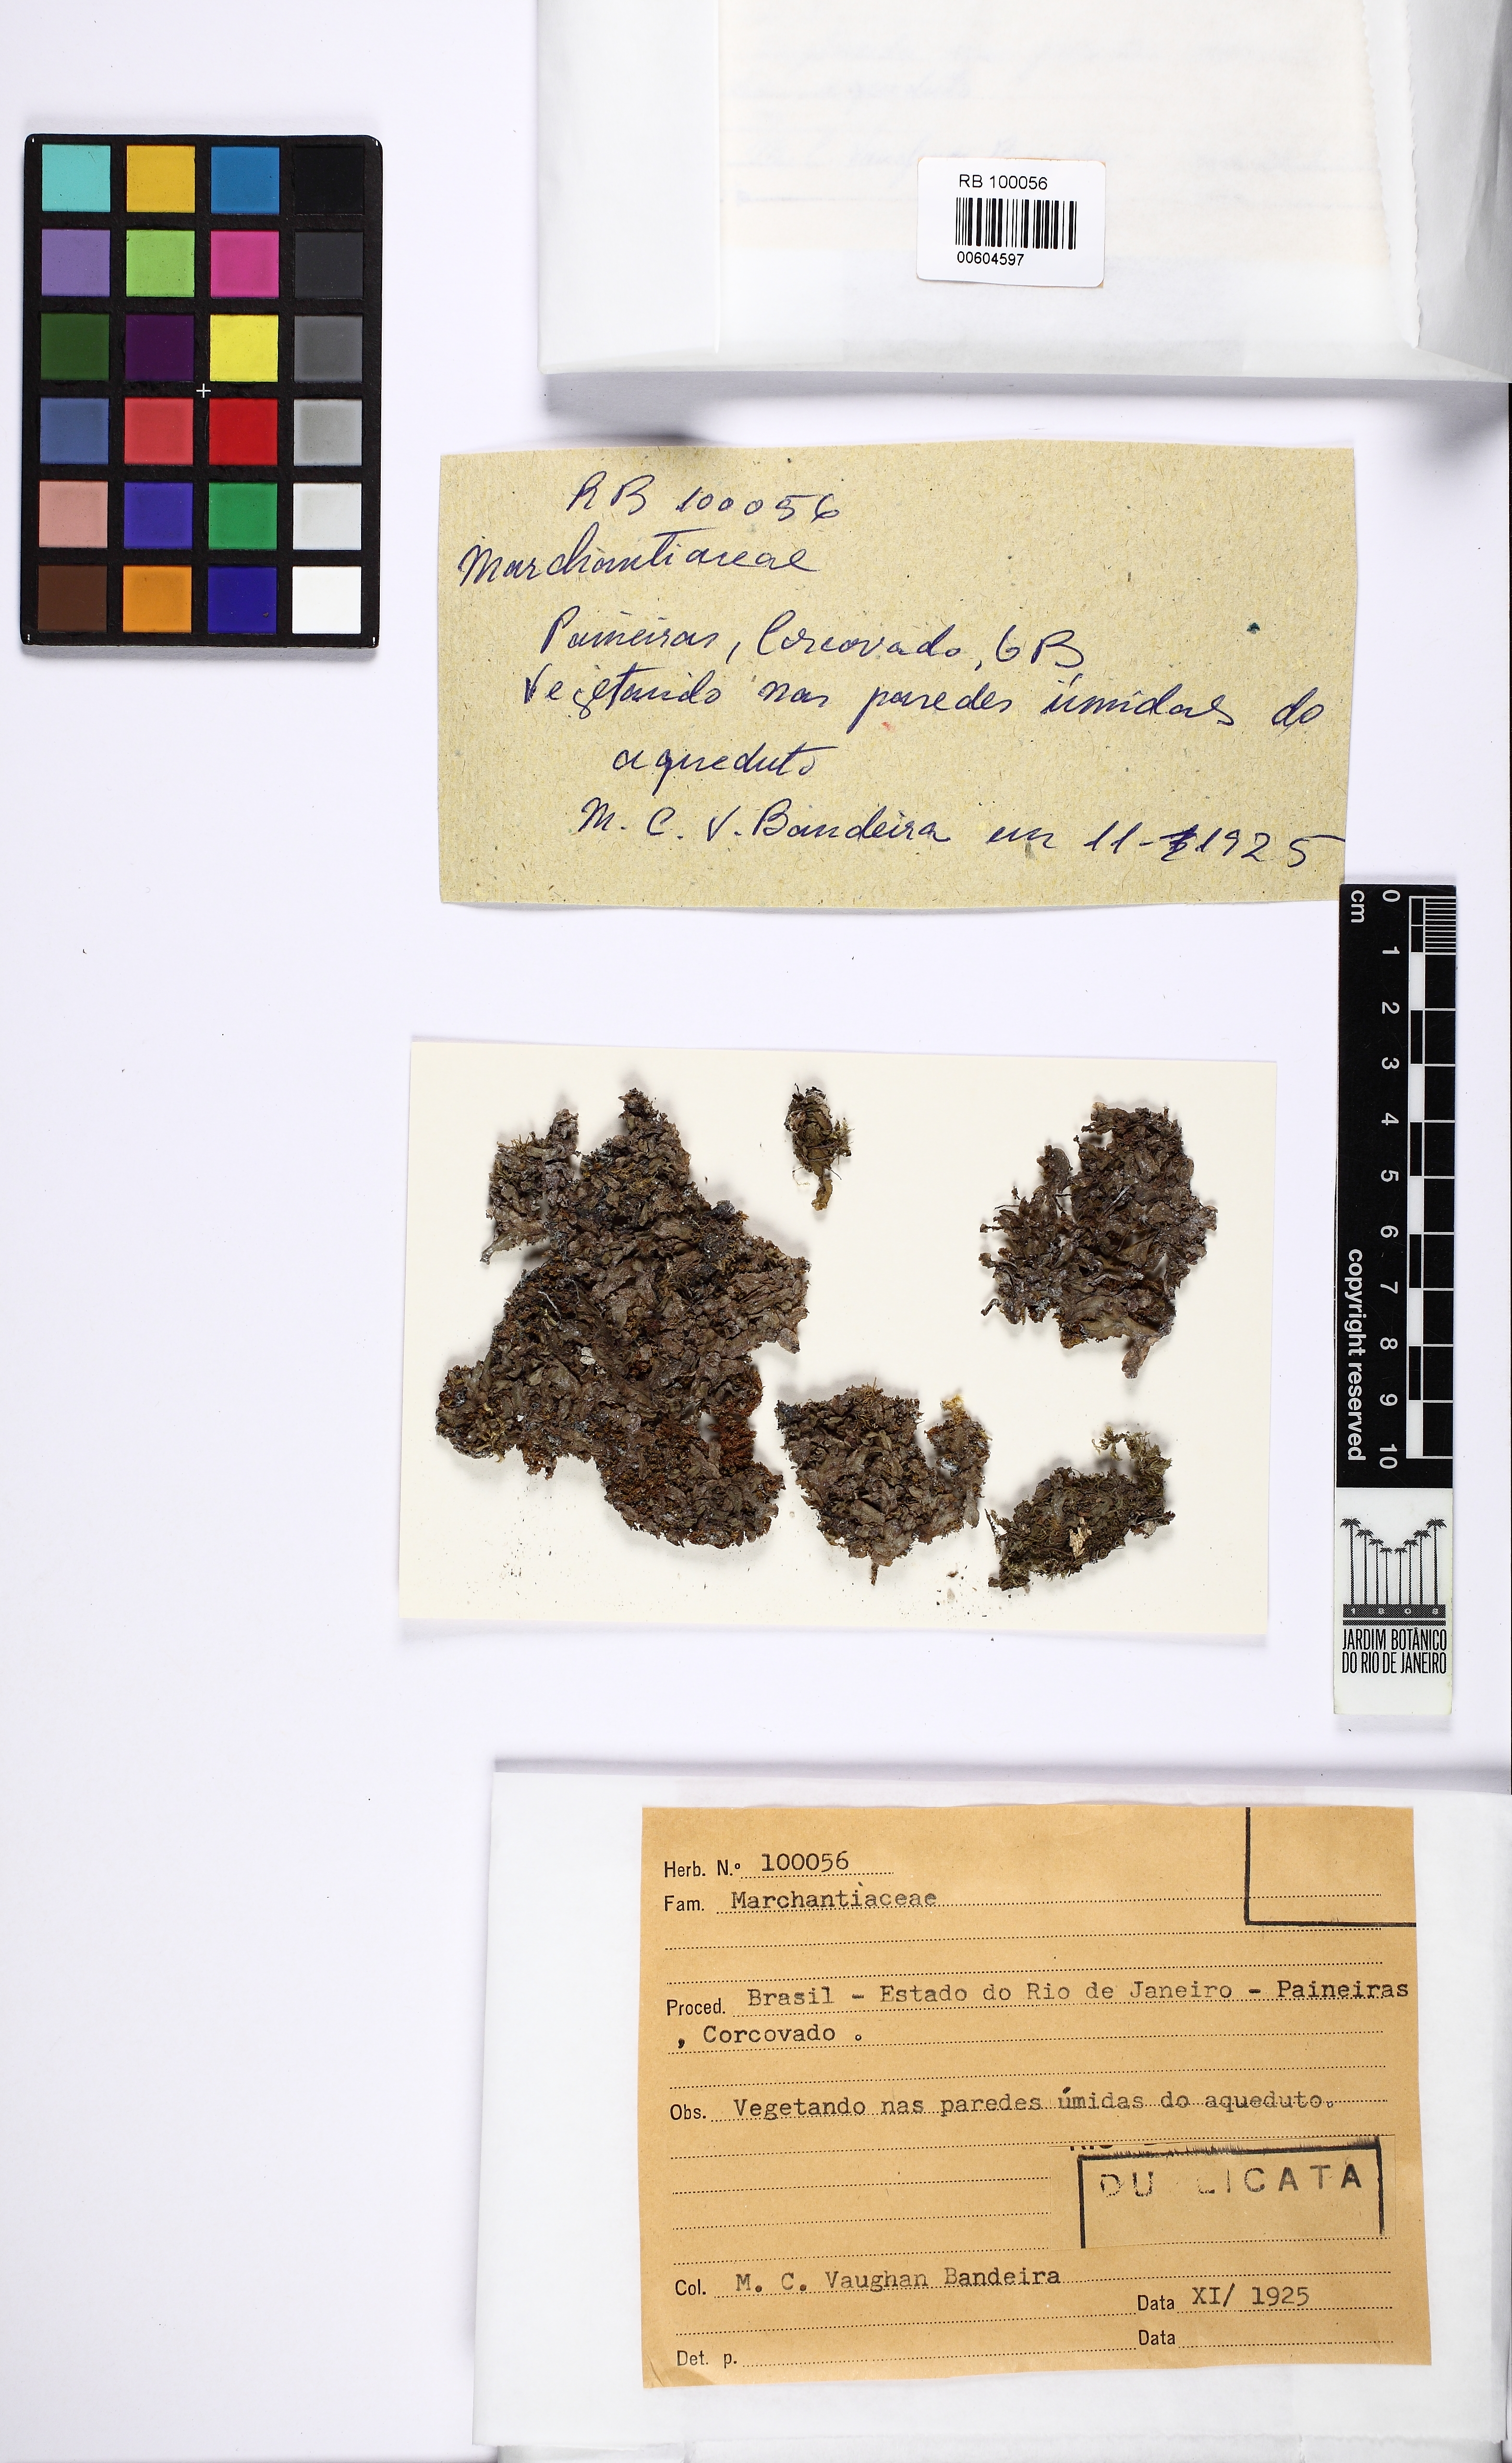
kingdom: Plantae
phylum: Marchantiophyta
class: Marchantiopsida
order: Marchantiales
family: Marchantiaceae
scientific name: Marchantiaceae
